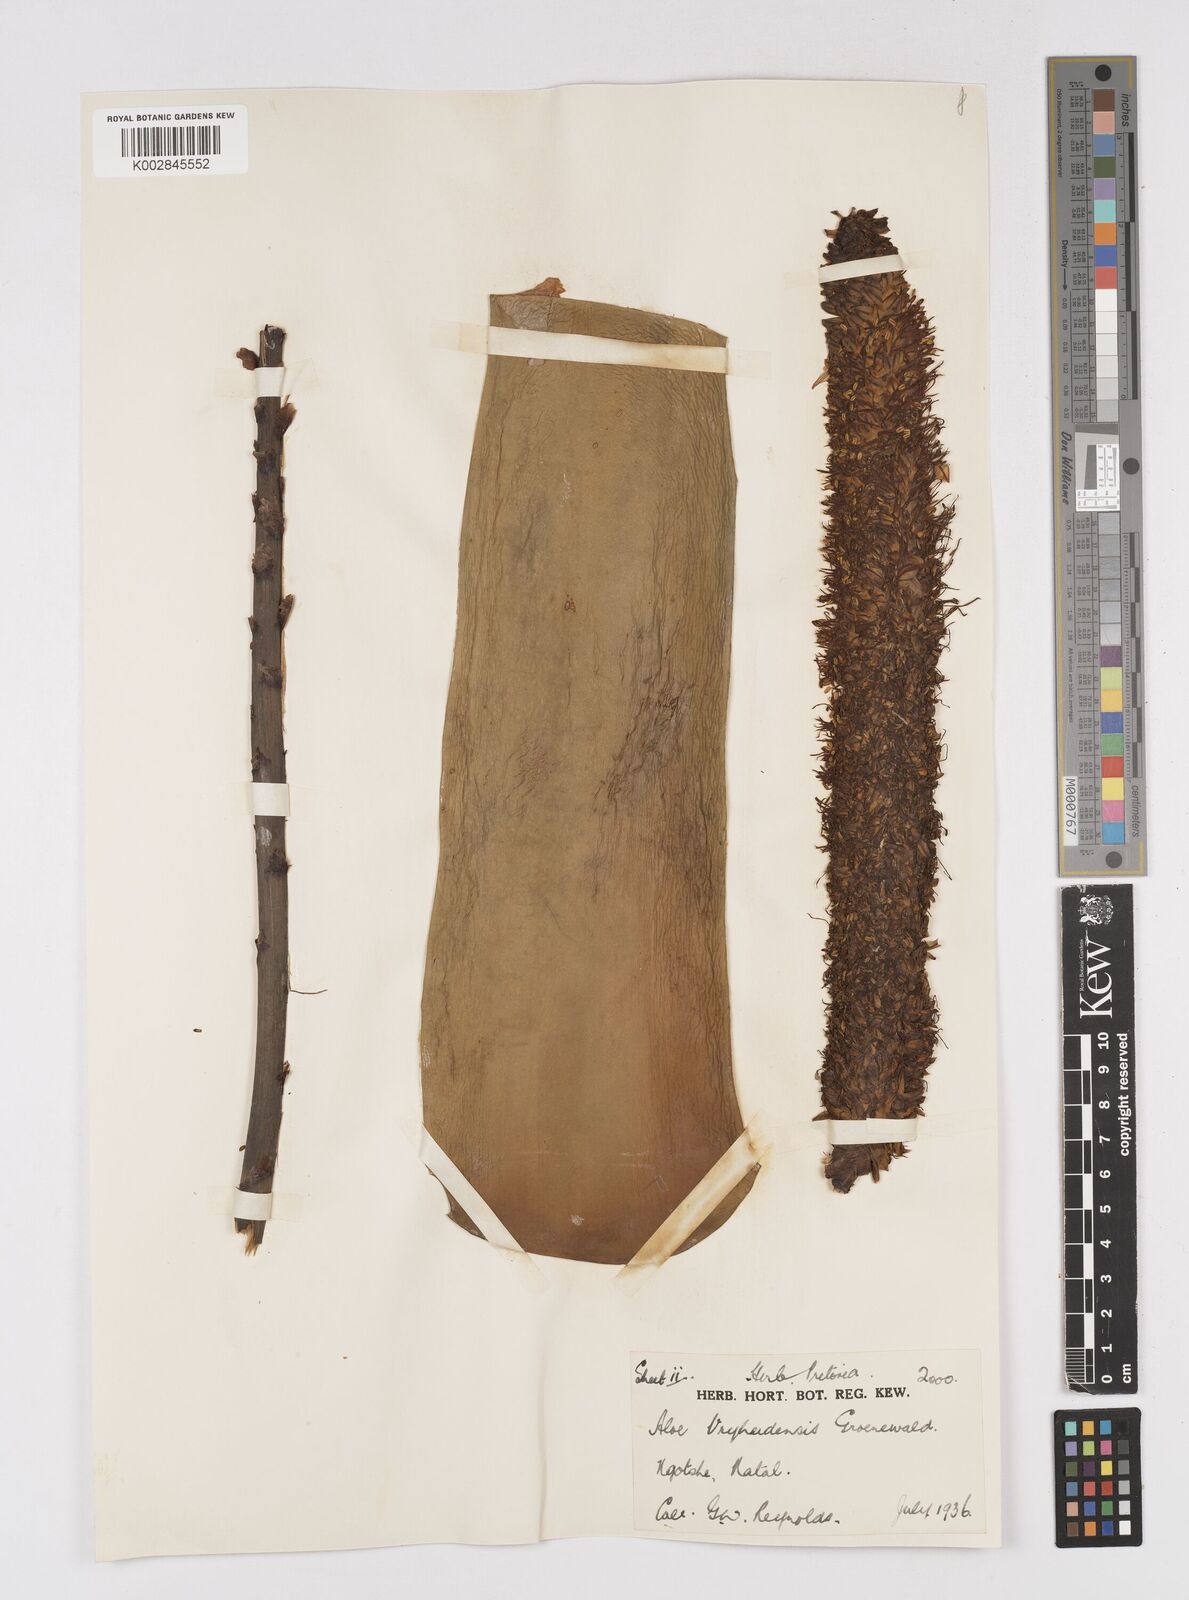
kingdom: Plantae
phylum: Tracheophyta
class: Liliopsida
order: Asparagales
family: Asphodelaceae
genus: Aloe
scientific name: Aloe vryheidensis
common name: Vryheid aloe
